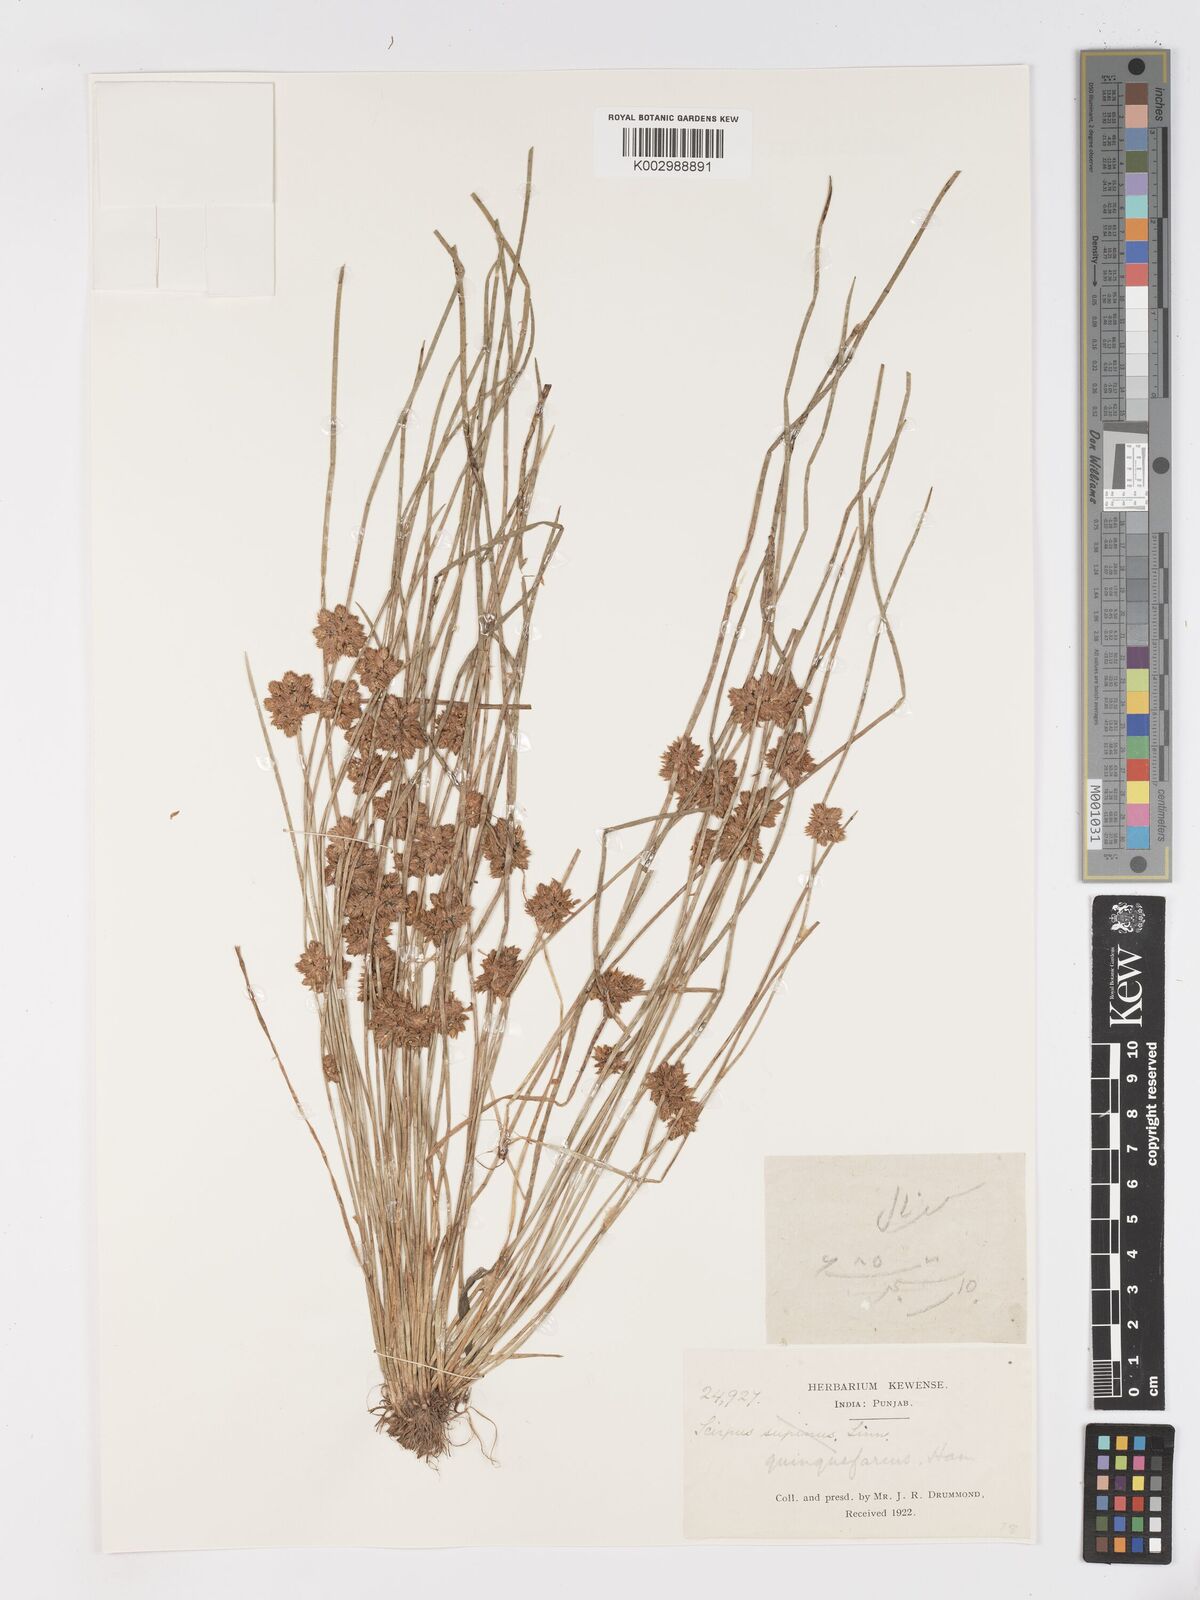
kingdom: Plantae
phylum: Tracheophyta
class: Liliopsida
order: Poales
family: Cyperaceae
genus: Schoenoplectiella
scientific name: Schoenoplectiella roylei
